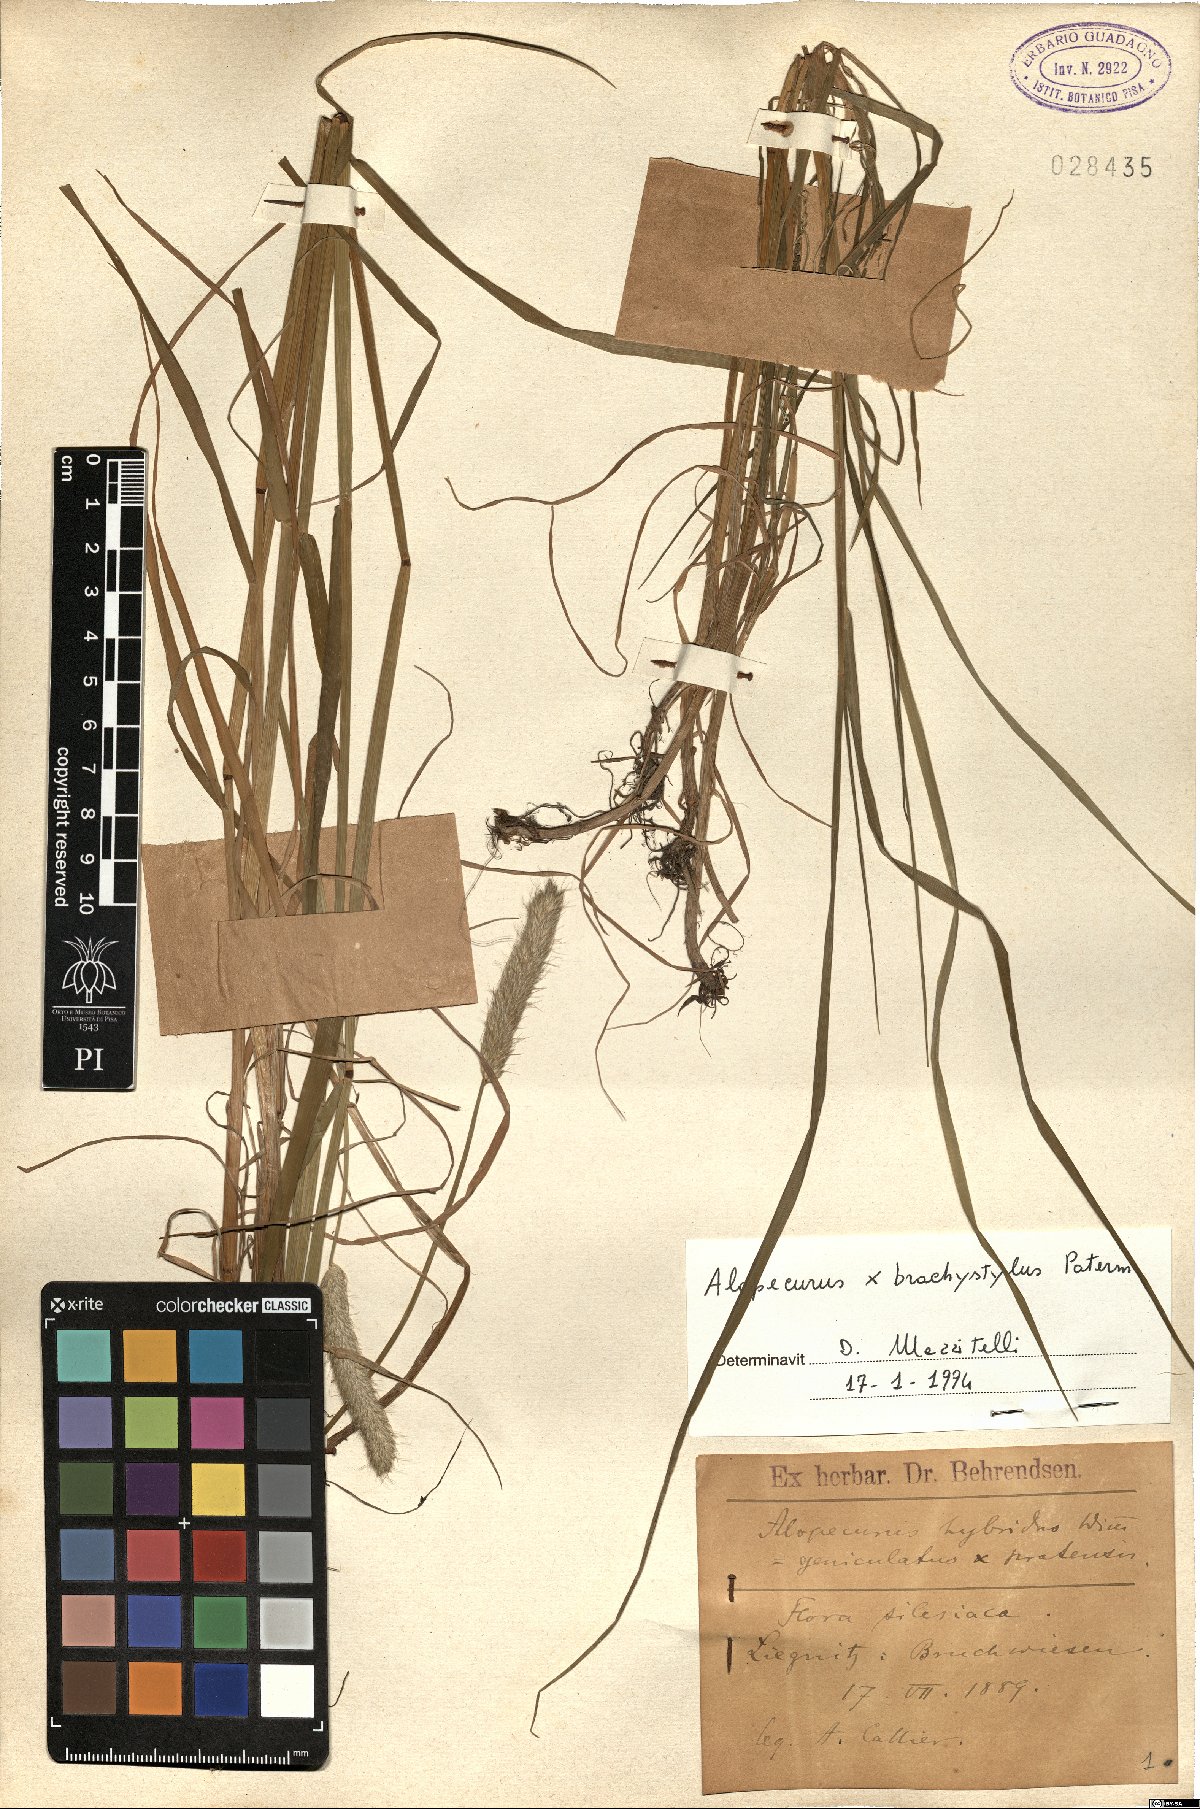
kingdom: Plantae
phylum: Tracheophyta
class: Liliopsida
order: Poales
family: Poaceae
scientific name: Poaceae
